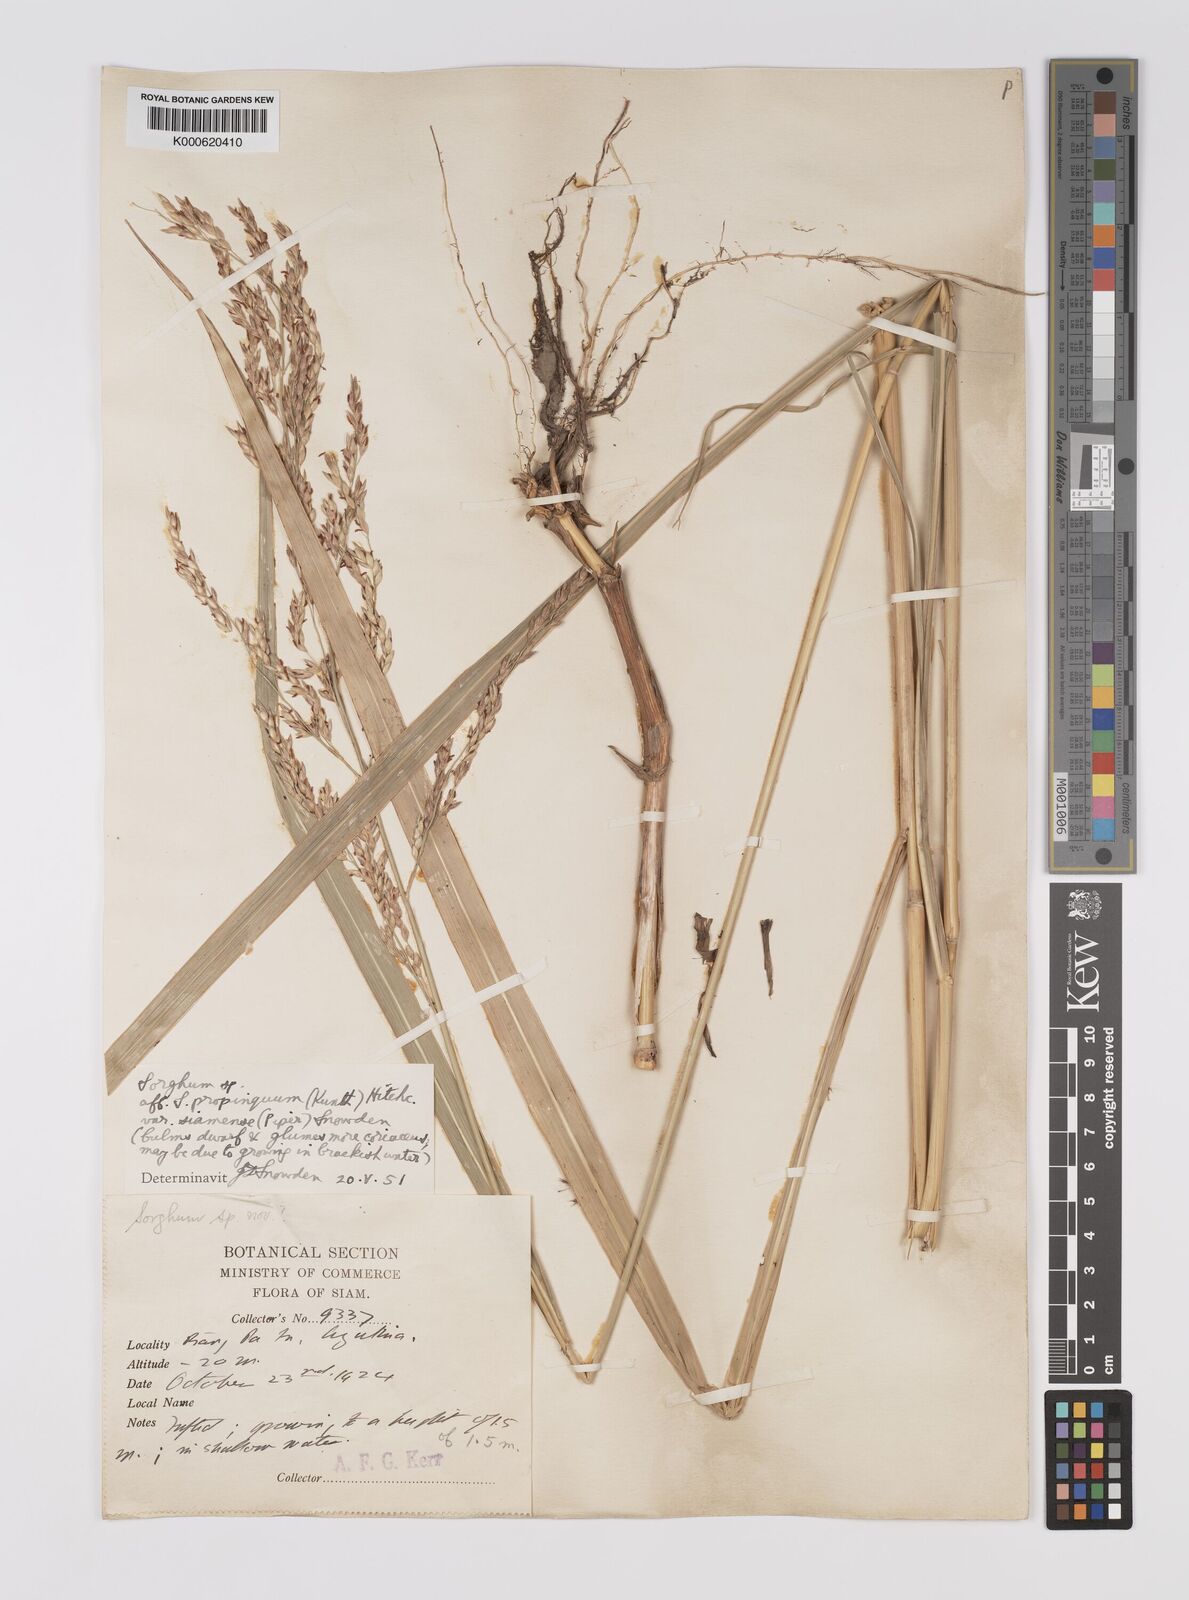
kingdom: Plantae
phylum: Tracheophyta
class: Liliopsida
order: Poales
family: Poaceae
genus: Sorghum
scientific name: Sorghum propinquum
